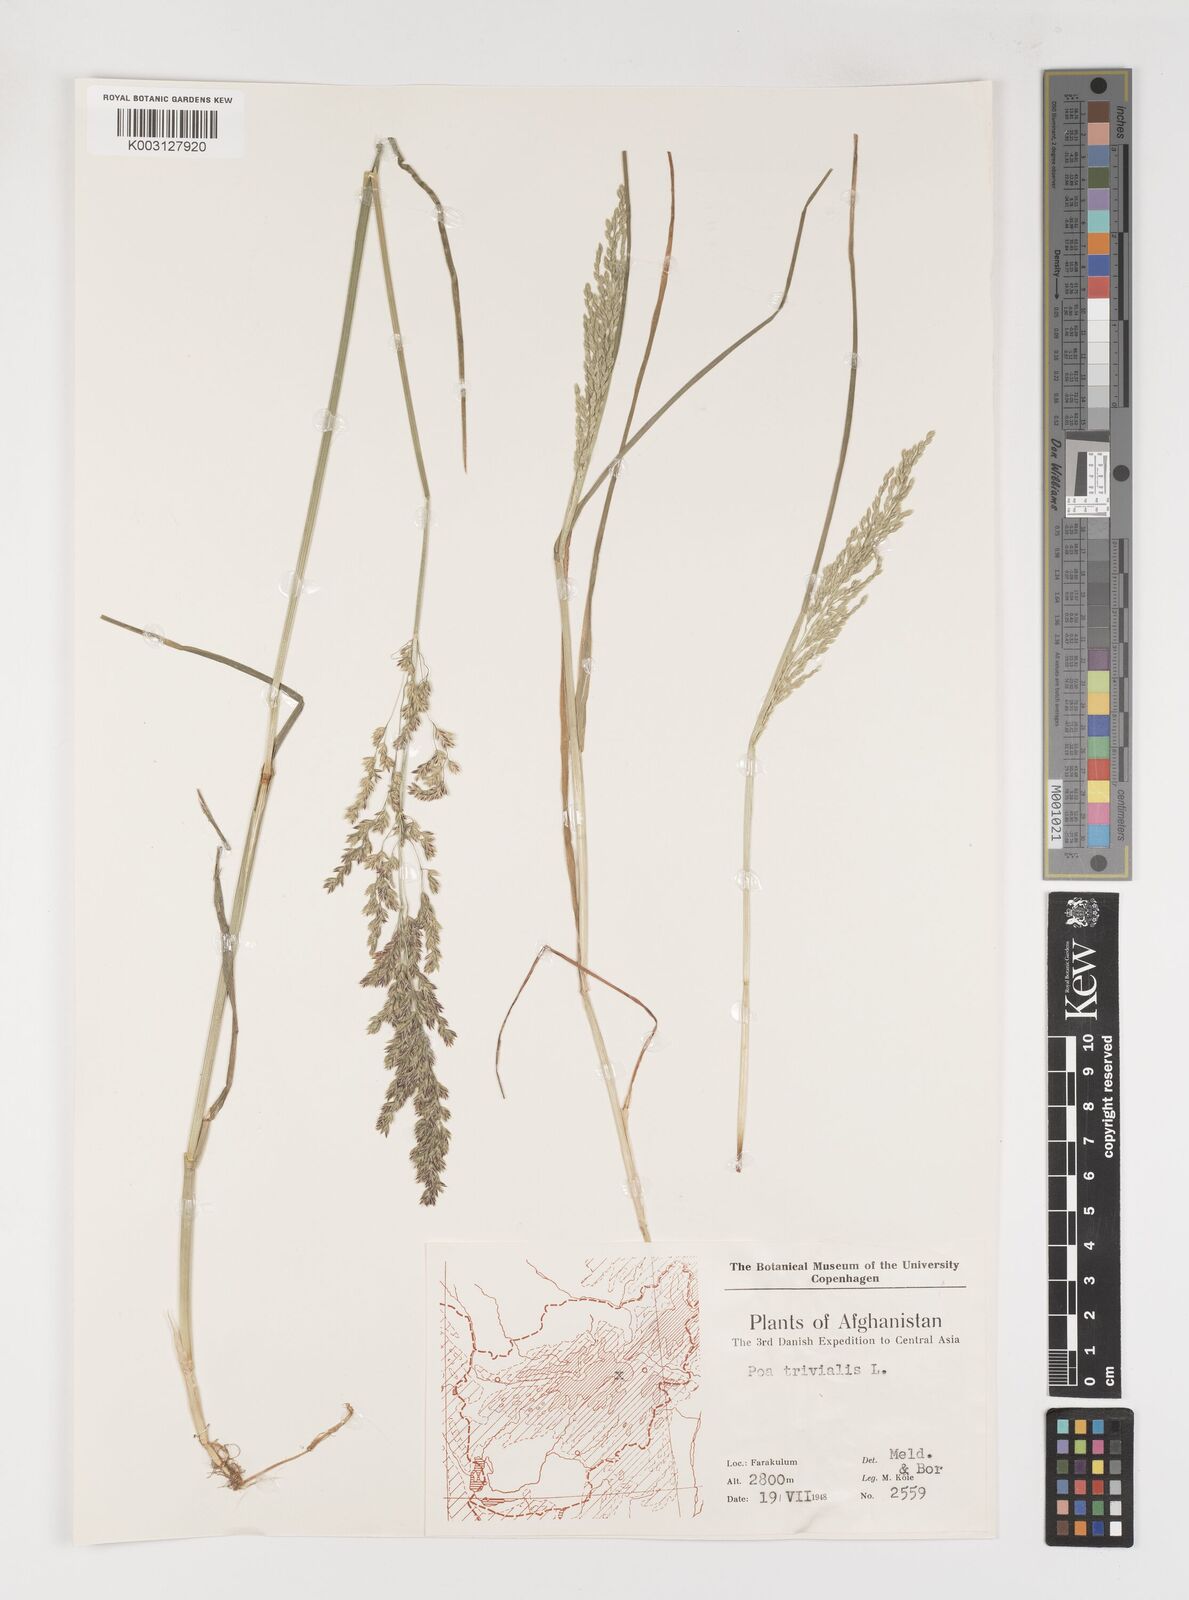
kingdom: Plantae
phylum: Tracheophyta
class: Liliopsida
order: Poales
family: Poaceae
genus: Poa
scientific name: Poa trivialis
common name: Rough bluegrass
